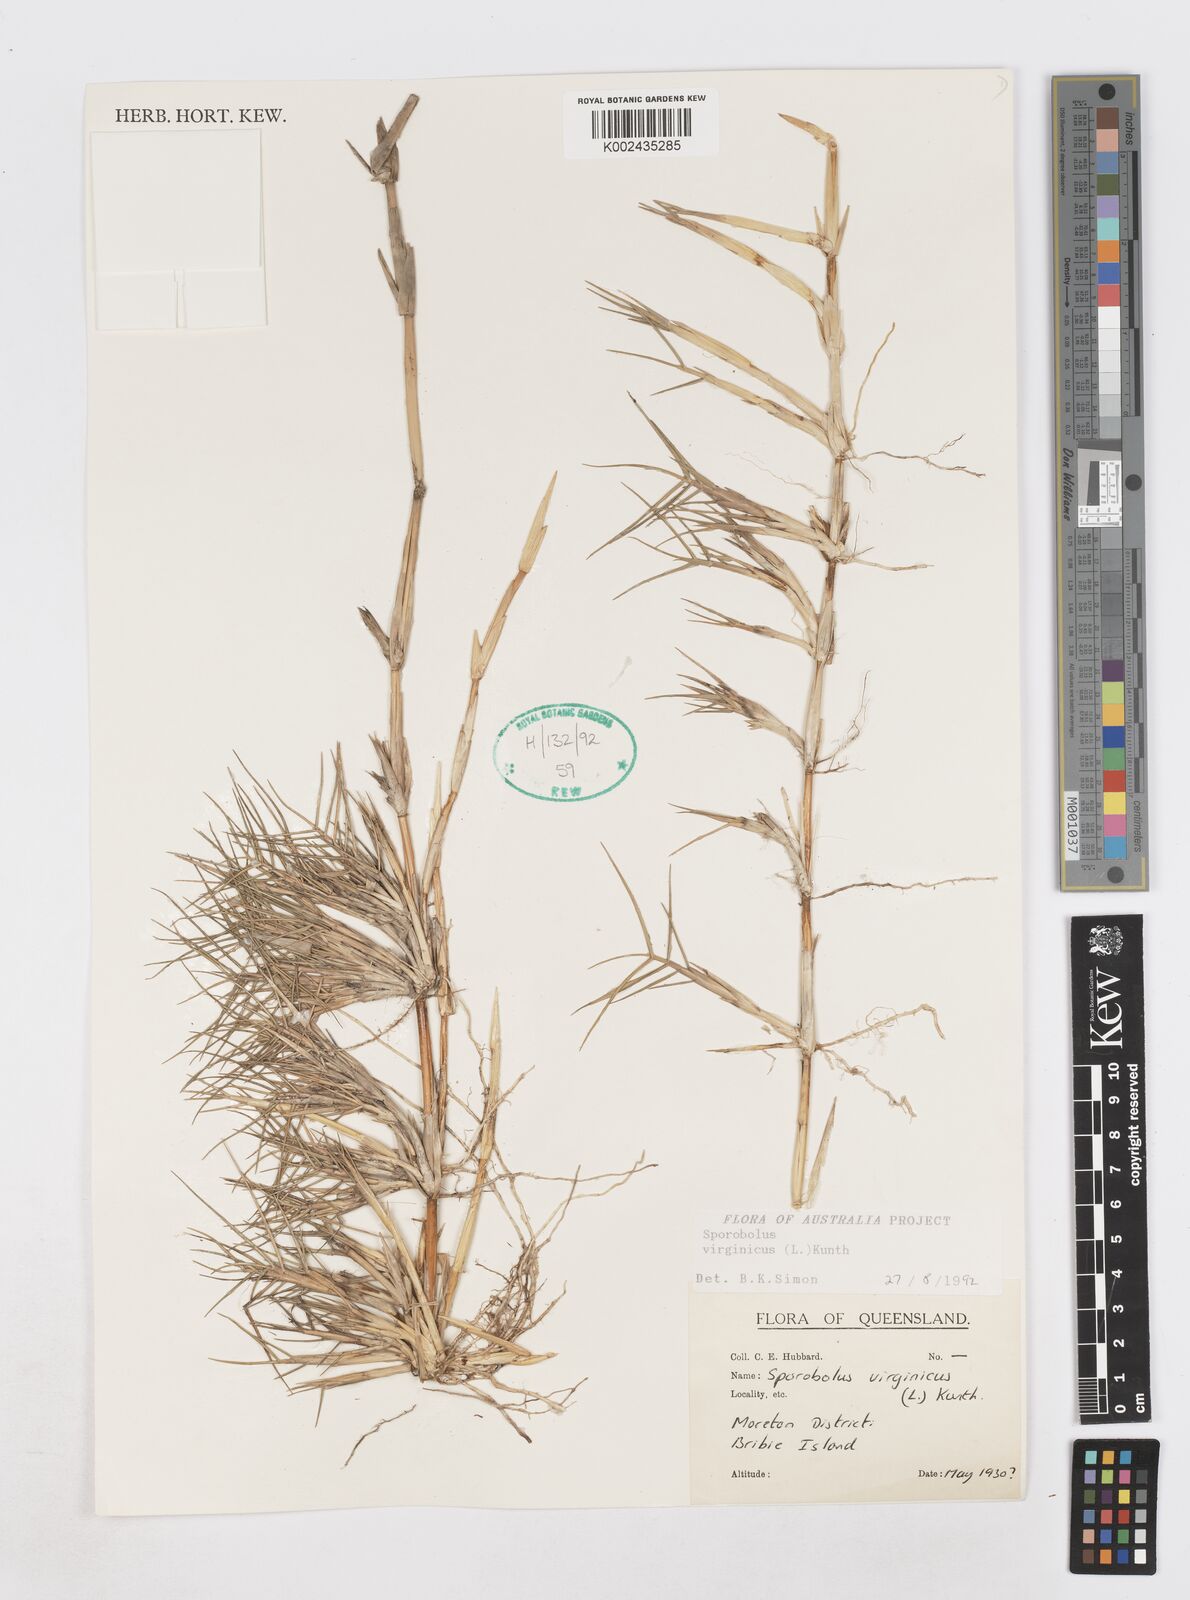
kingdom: Plantae
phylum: Tracheophyta
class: Liliopsida
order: Poales
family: Poaceae
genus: Sporobolus
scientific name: Sporobolus virginicus
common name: Beach dropseed
